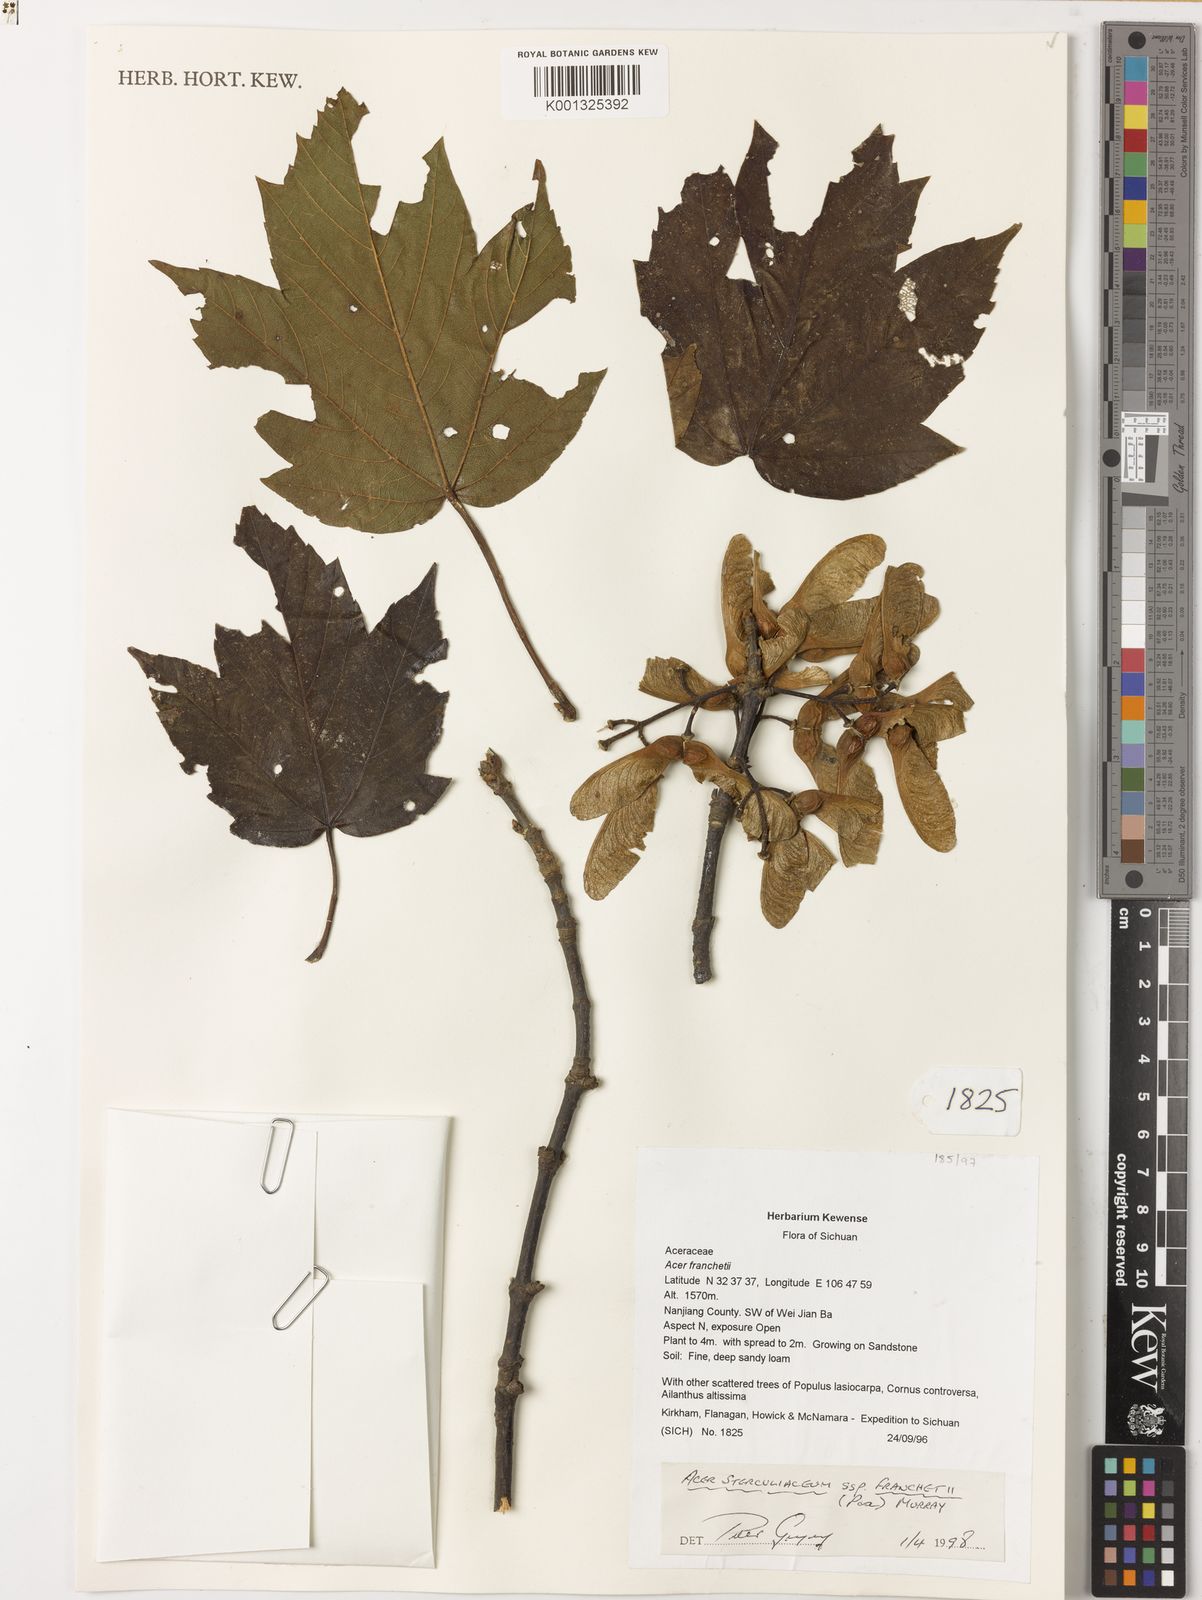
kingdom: Plantae
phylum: Tracheophyta
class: Magnoliopsida
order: Sapindales
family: Sapindaceae
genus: Acer
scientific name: Acer sterculiaceum
